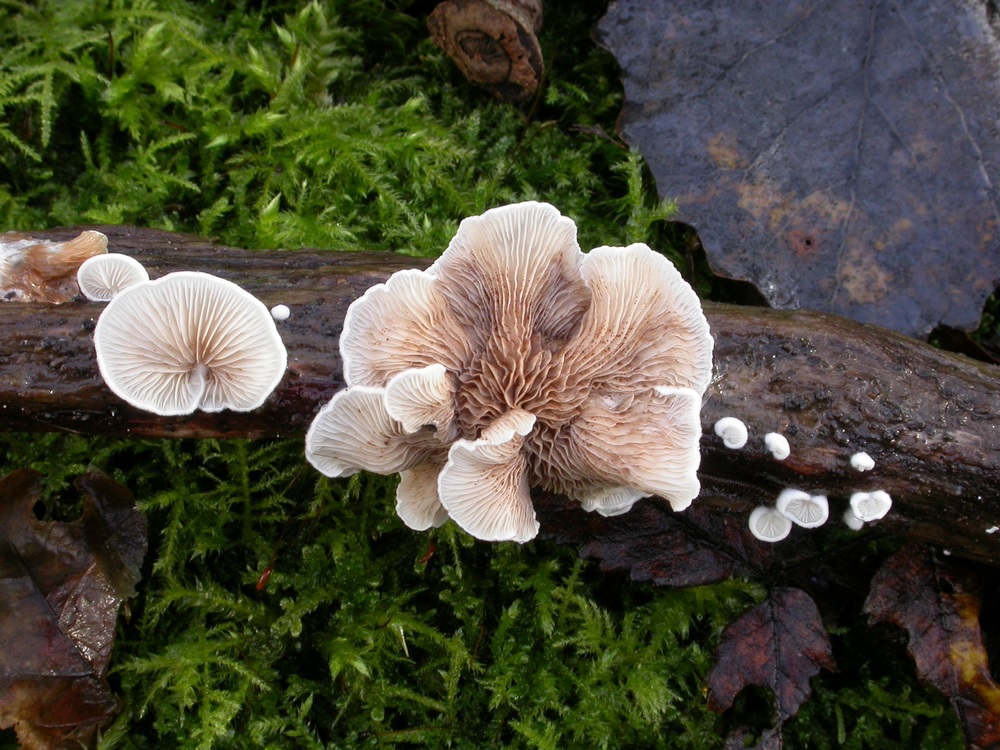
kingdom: Fungi
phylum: Basidiomycota
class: Agaricomycetes
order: Agaricales
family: Crepidotaceae
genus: Crepidotus
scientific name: Crepidotus variabilis
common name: forskelligformet muslingesvamp
